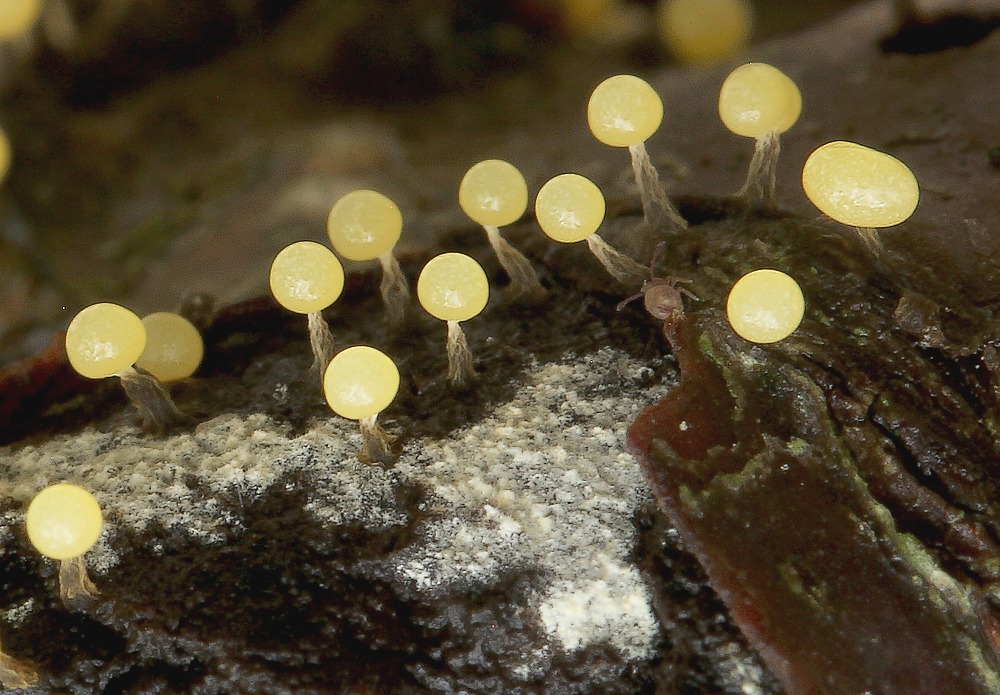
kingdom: Protozoa
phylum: Mycetozoa
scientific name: Mycetozoa
